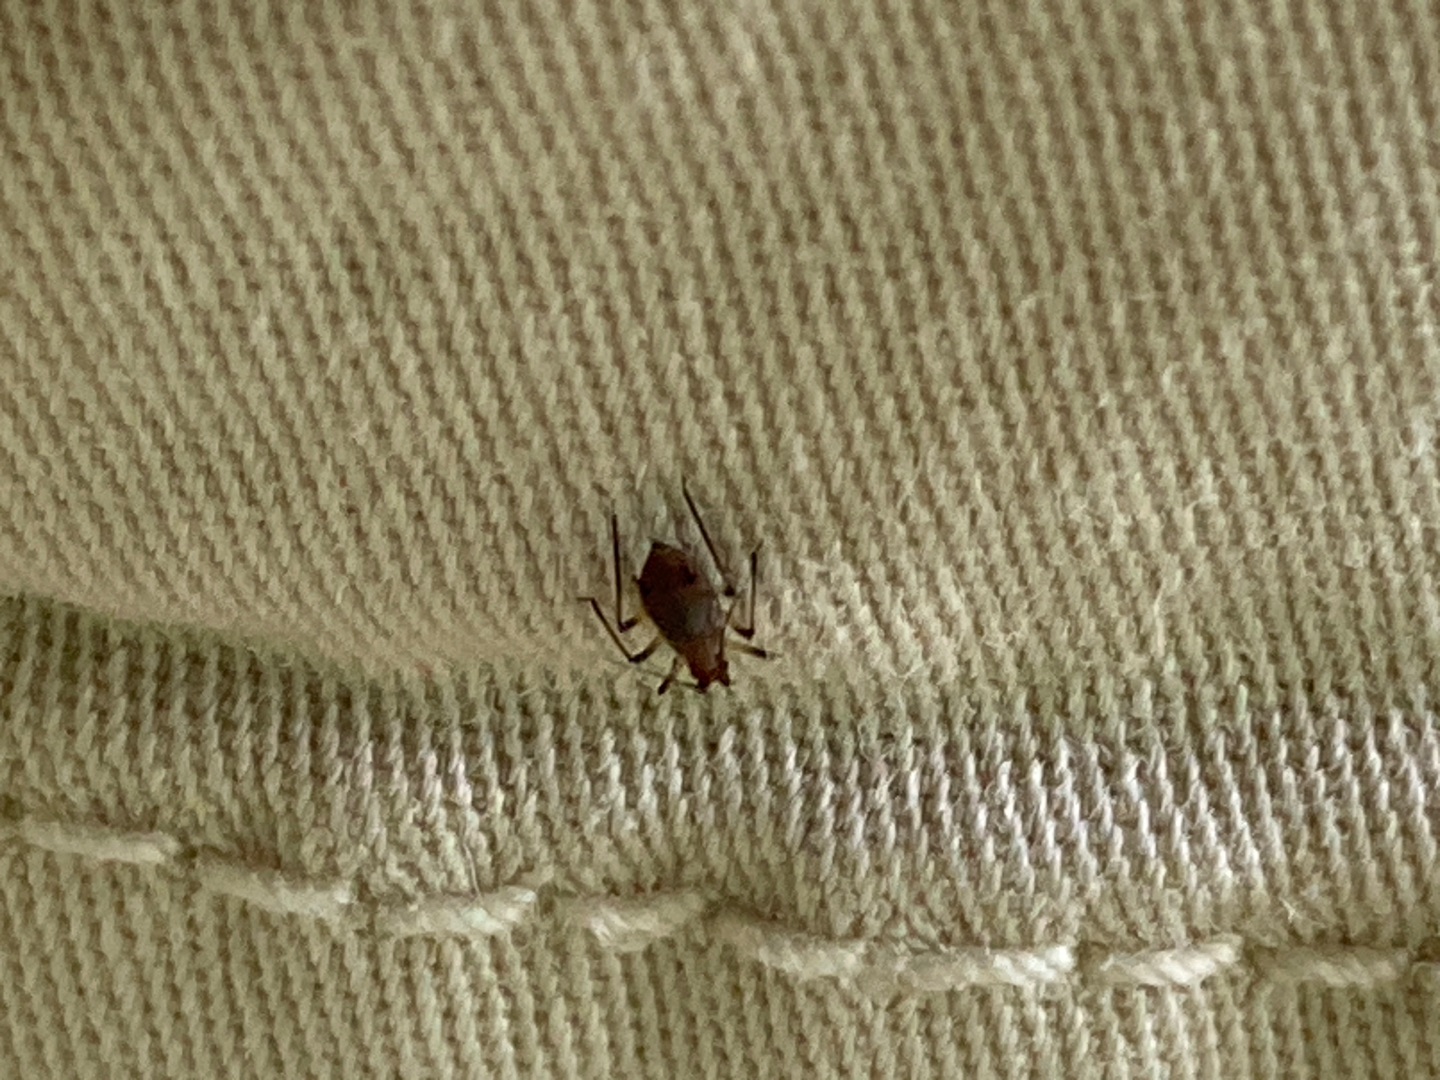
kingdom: Animalia
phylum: Arthropoda
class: Arachnida
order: Ixodida
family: Ixodidae
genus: Ixodes
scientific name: Ixodes ricinus
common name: Skovflåt
